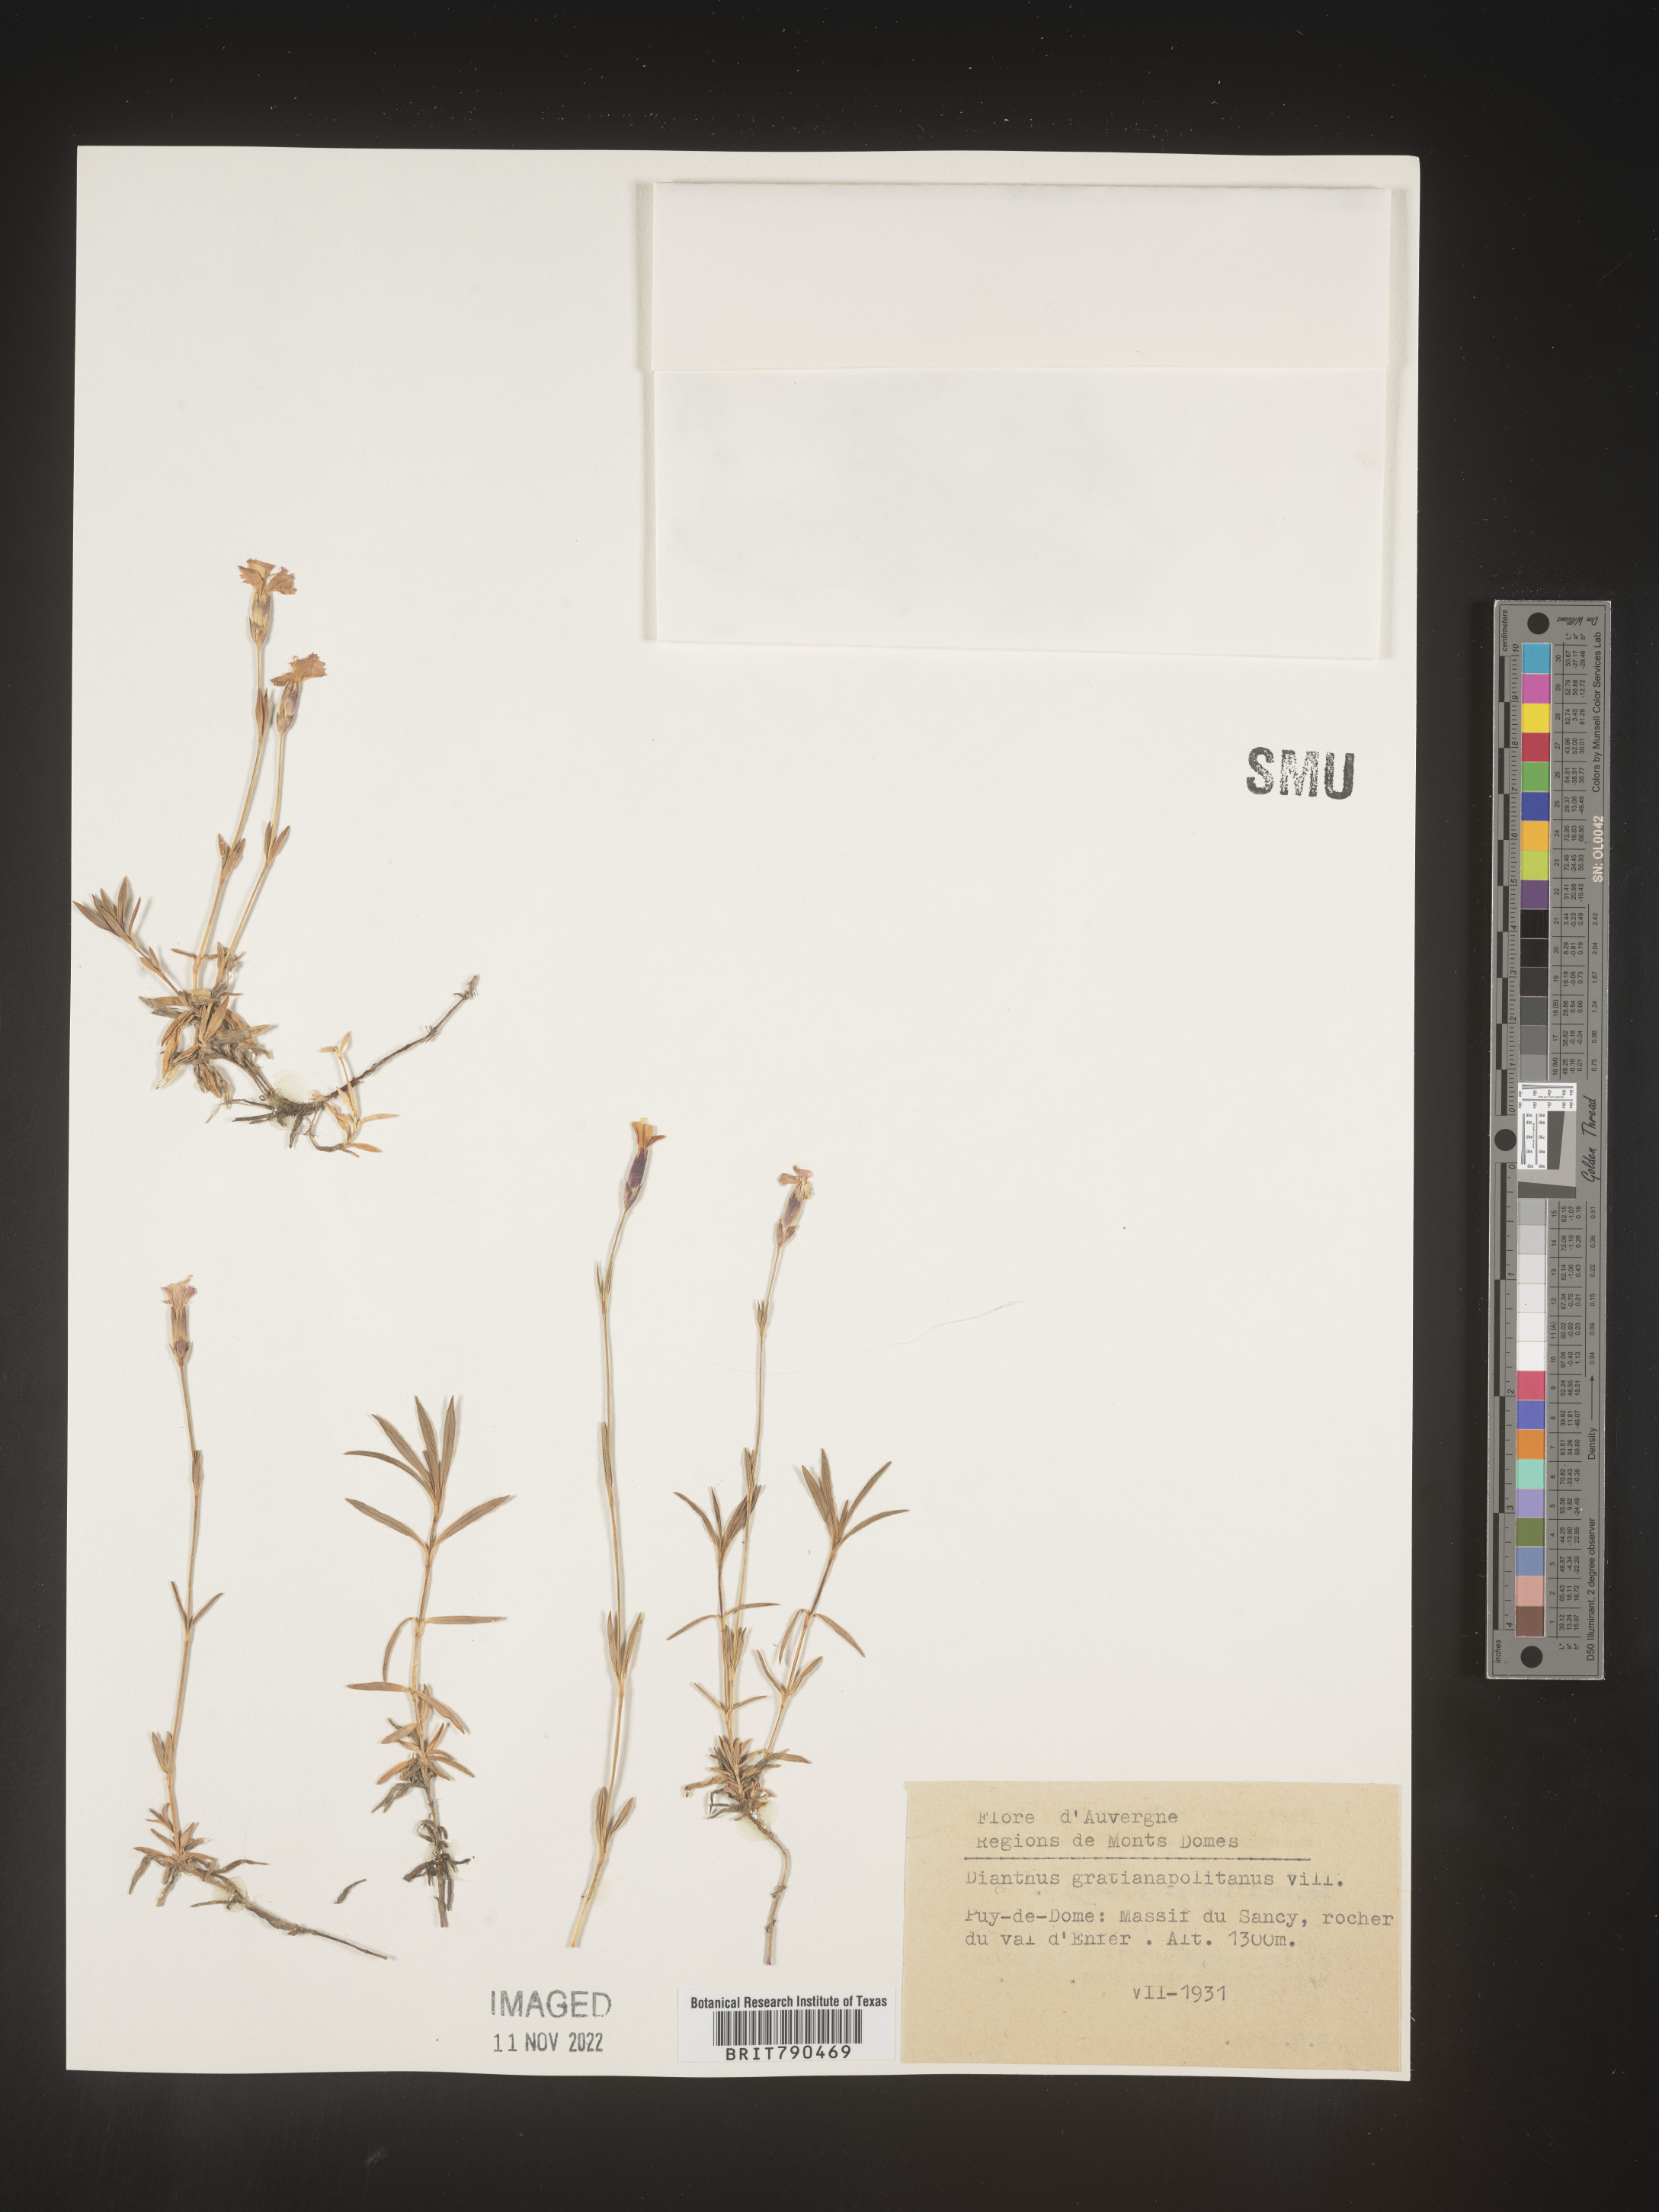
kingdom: Plantae
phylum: Tracheophyta
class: Magnoliopsida
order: Caryophyllales
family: Caryophyllaceae
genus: Dianthus
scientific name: Dianthus
